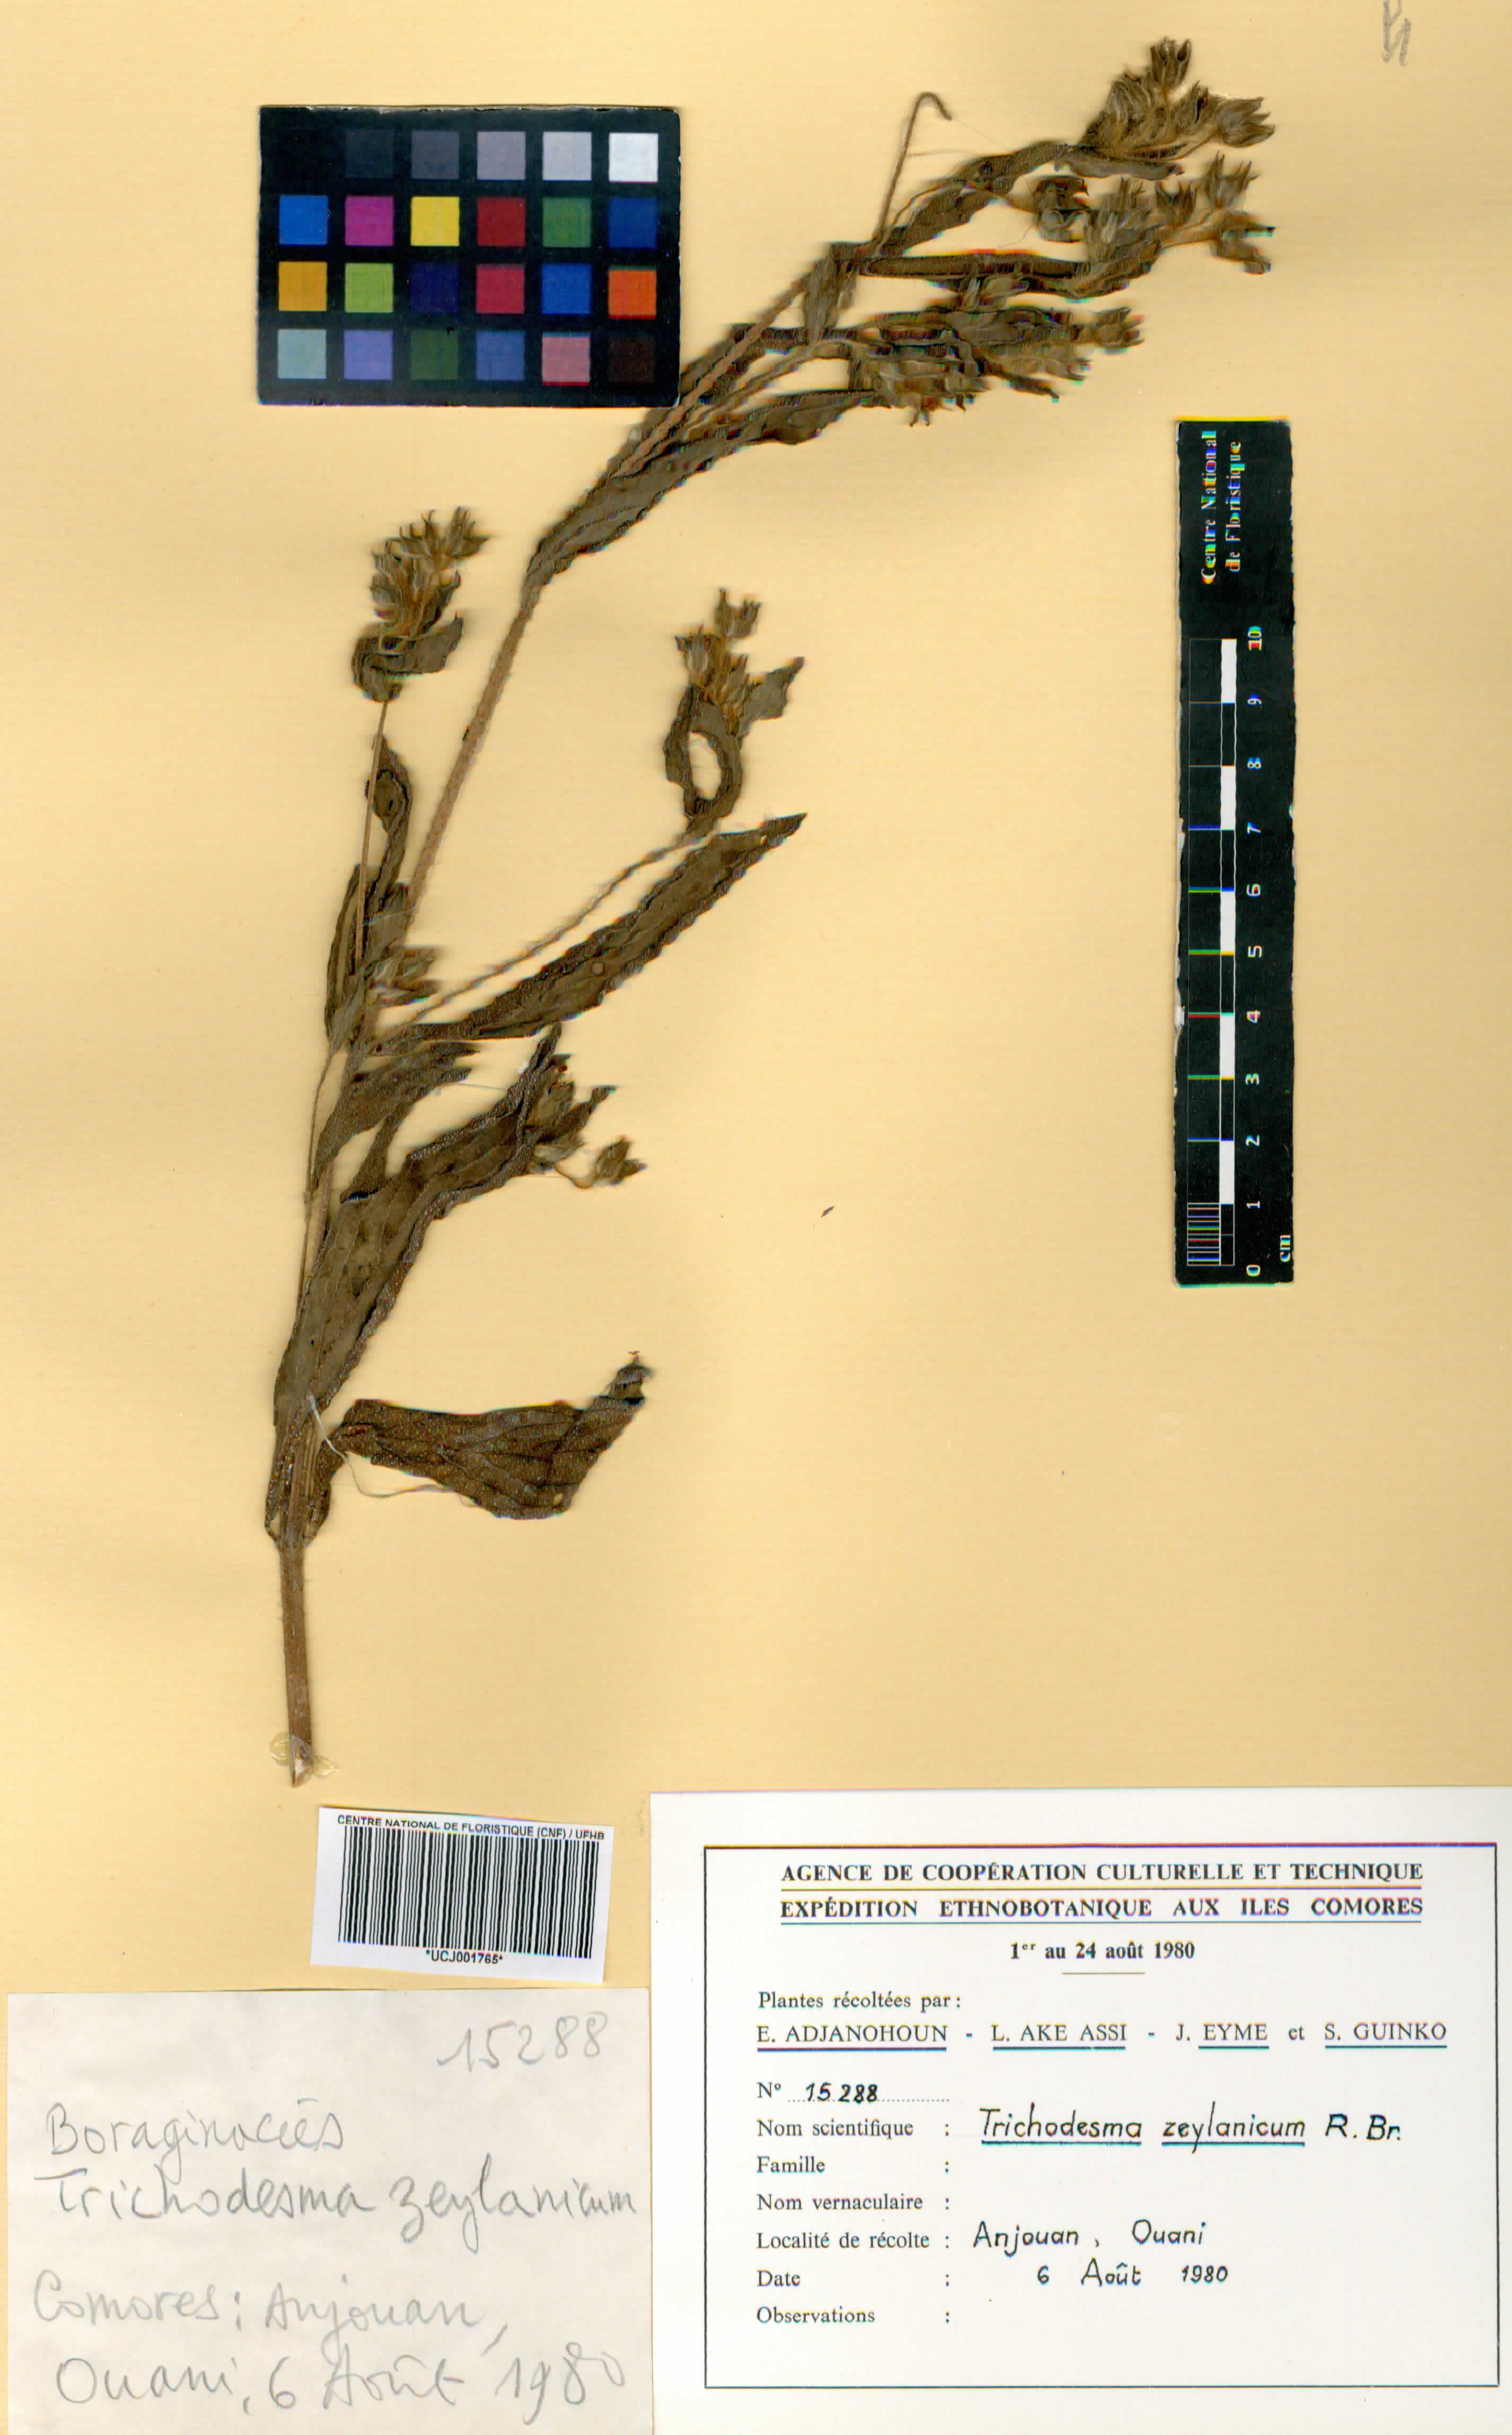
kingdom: Plantae
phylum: Tracheophyta
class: Magnoliopsida
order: Boraginales
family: Boraginaceae
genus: Trichodesma
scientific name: Trichodesma zeylanicum
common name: Camelbush
